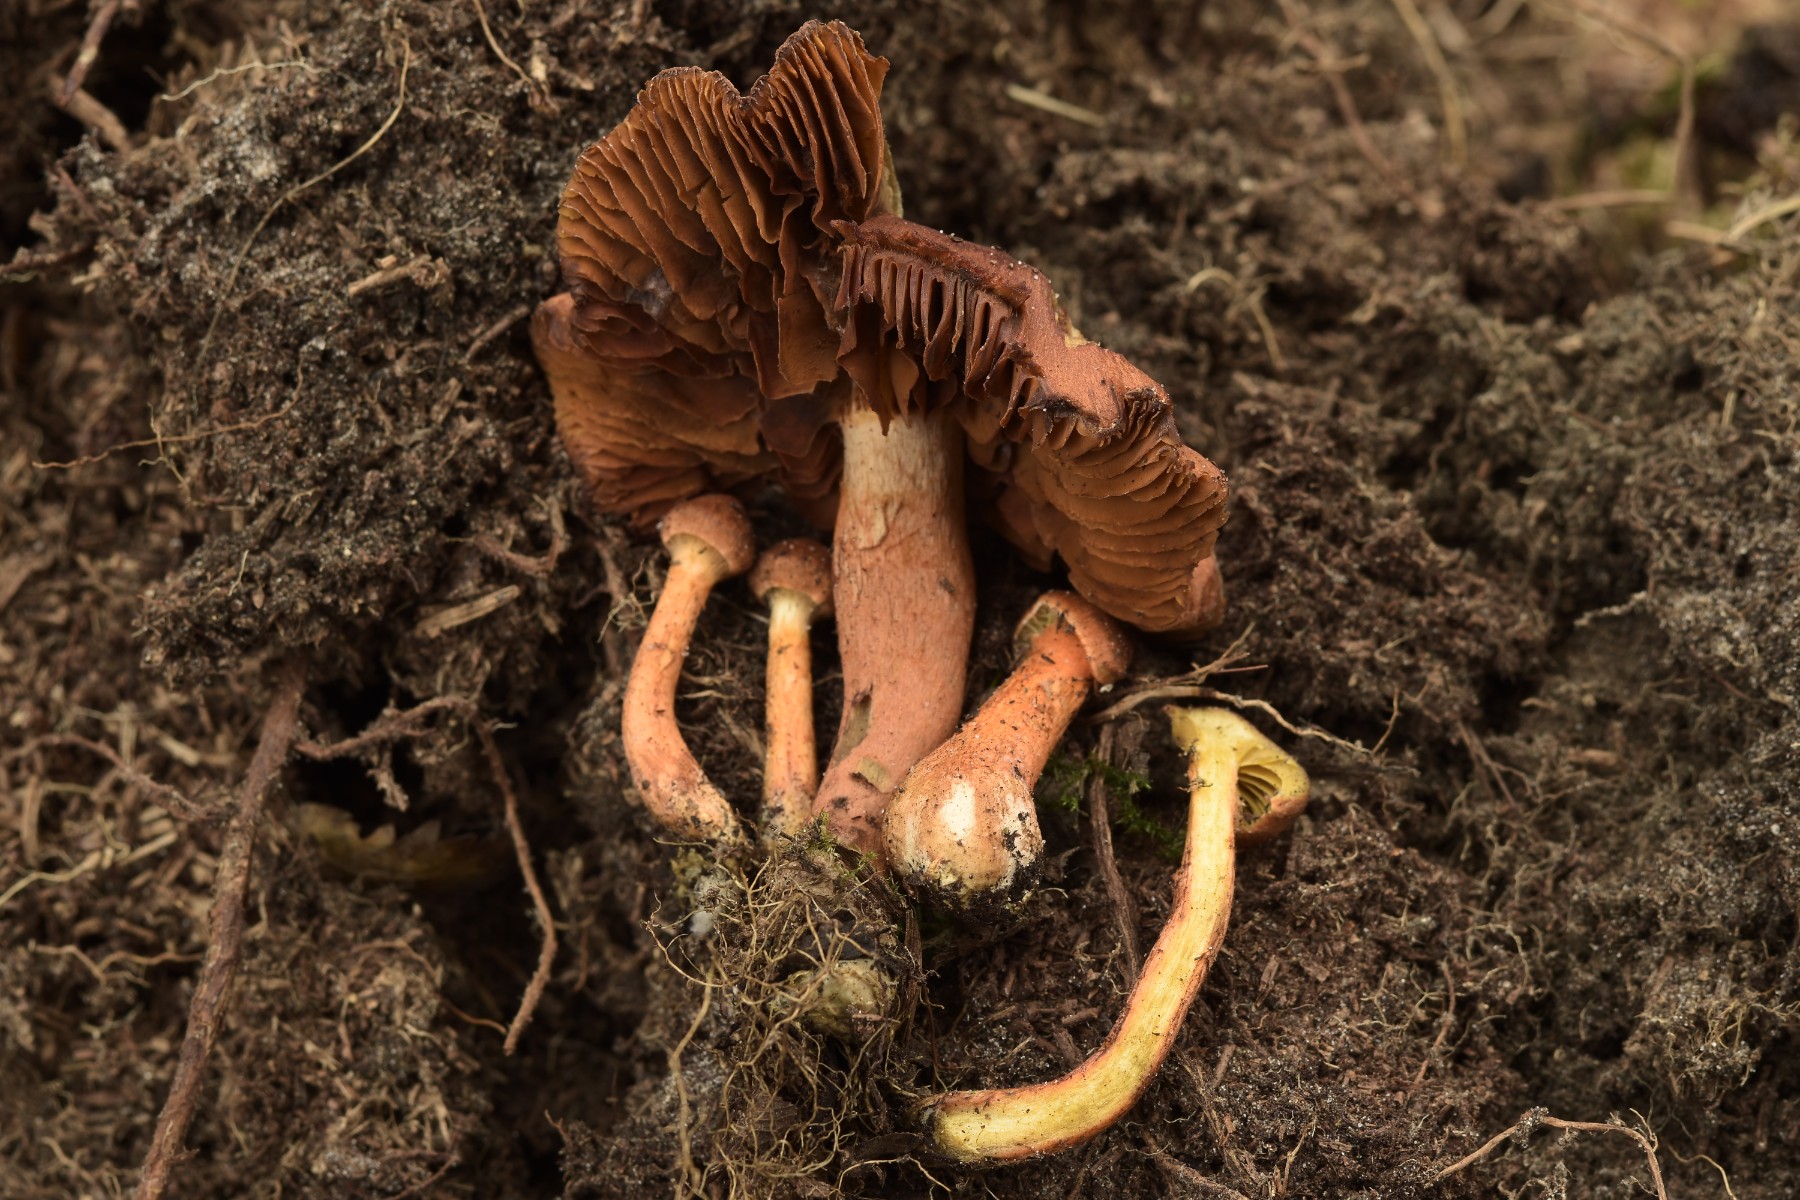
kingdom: Fungi
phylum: Basidiomycota
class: Agaricomycetes
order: Agaricales
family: Cortinariaceae
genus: Cortinarius
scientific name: Cortinarius uliginosus
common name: mose-slørhat
